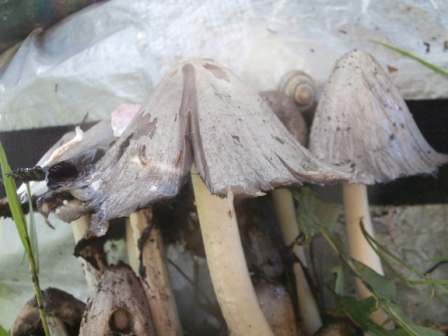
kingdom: Fungi
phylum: Basidiomycota
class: Agaricomycetes
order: Agaricales
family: Psathyrellaceae
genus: Coprinopsis
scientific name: Coprinopsis atramentaria
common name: almindelig blækhat
